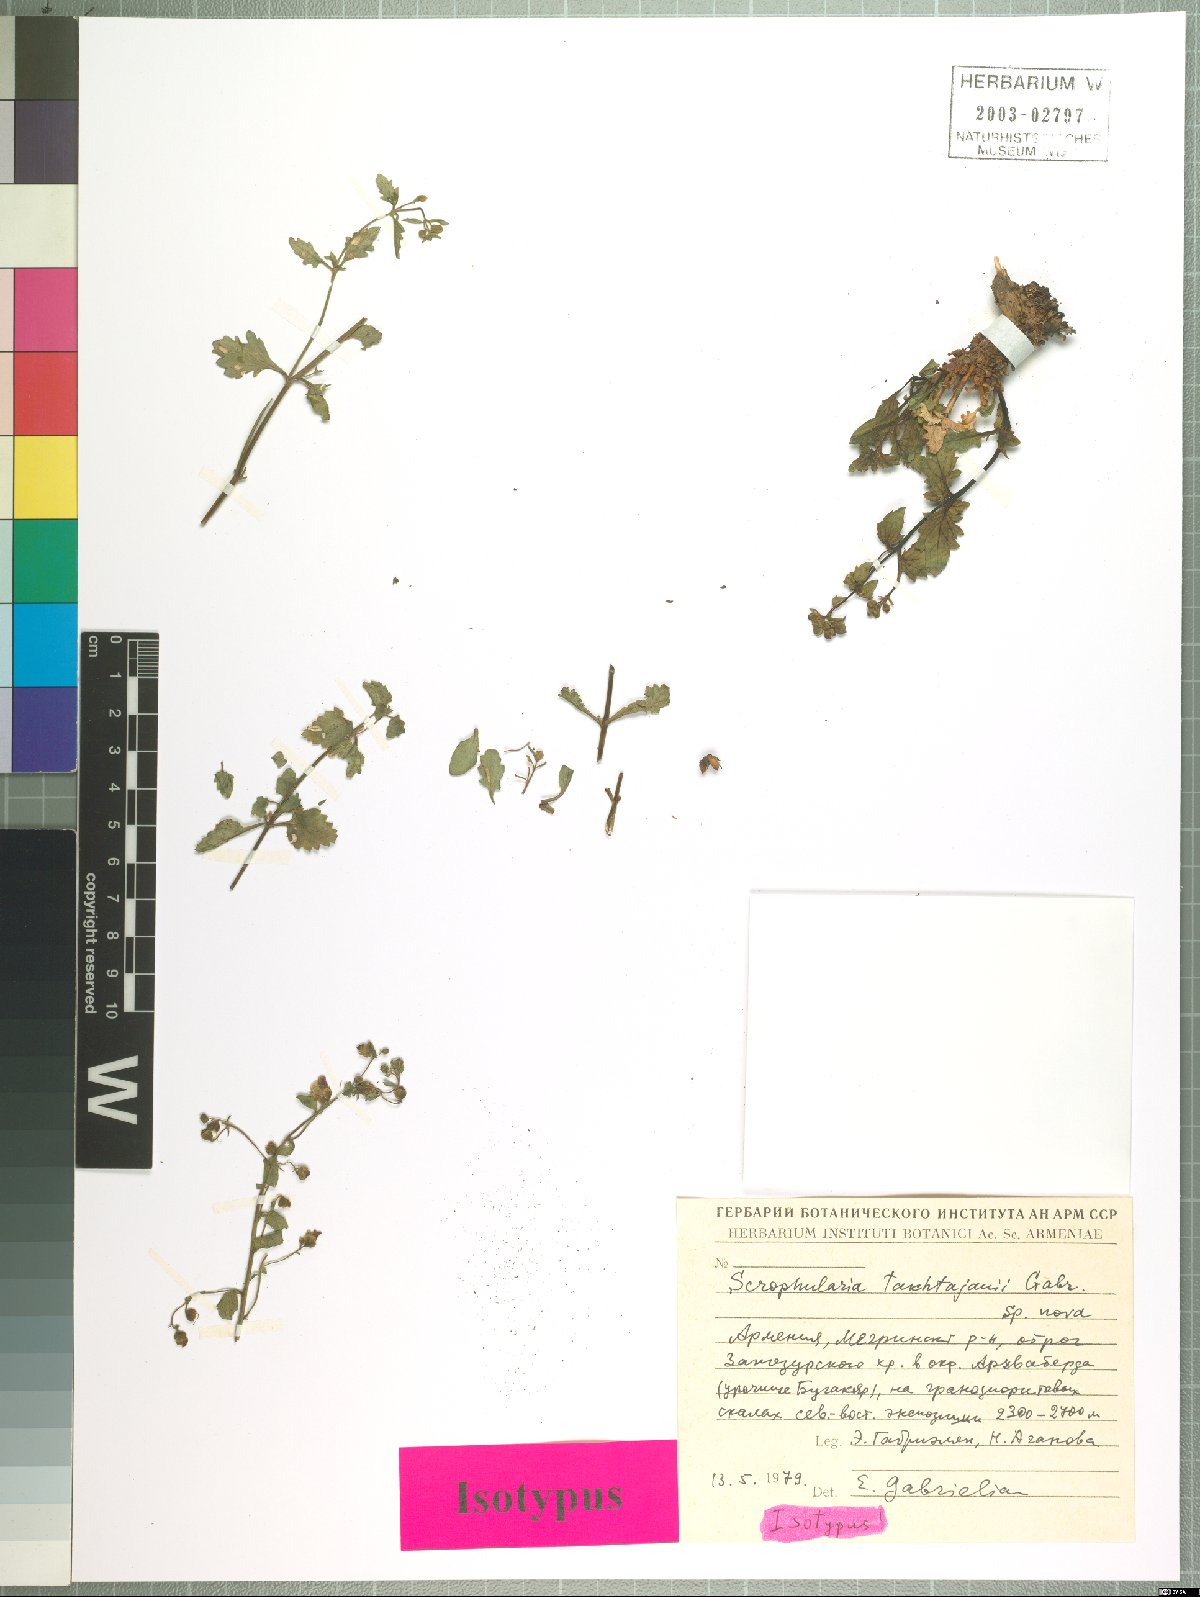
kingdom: Plantae
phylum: Tracheophyta
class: Magnoliopsida
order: Lamiales
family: Scrophulariaceae
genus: Scrophularia
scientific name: Scrophularia takhtajanii
